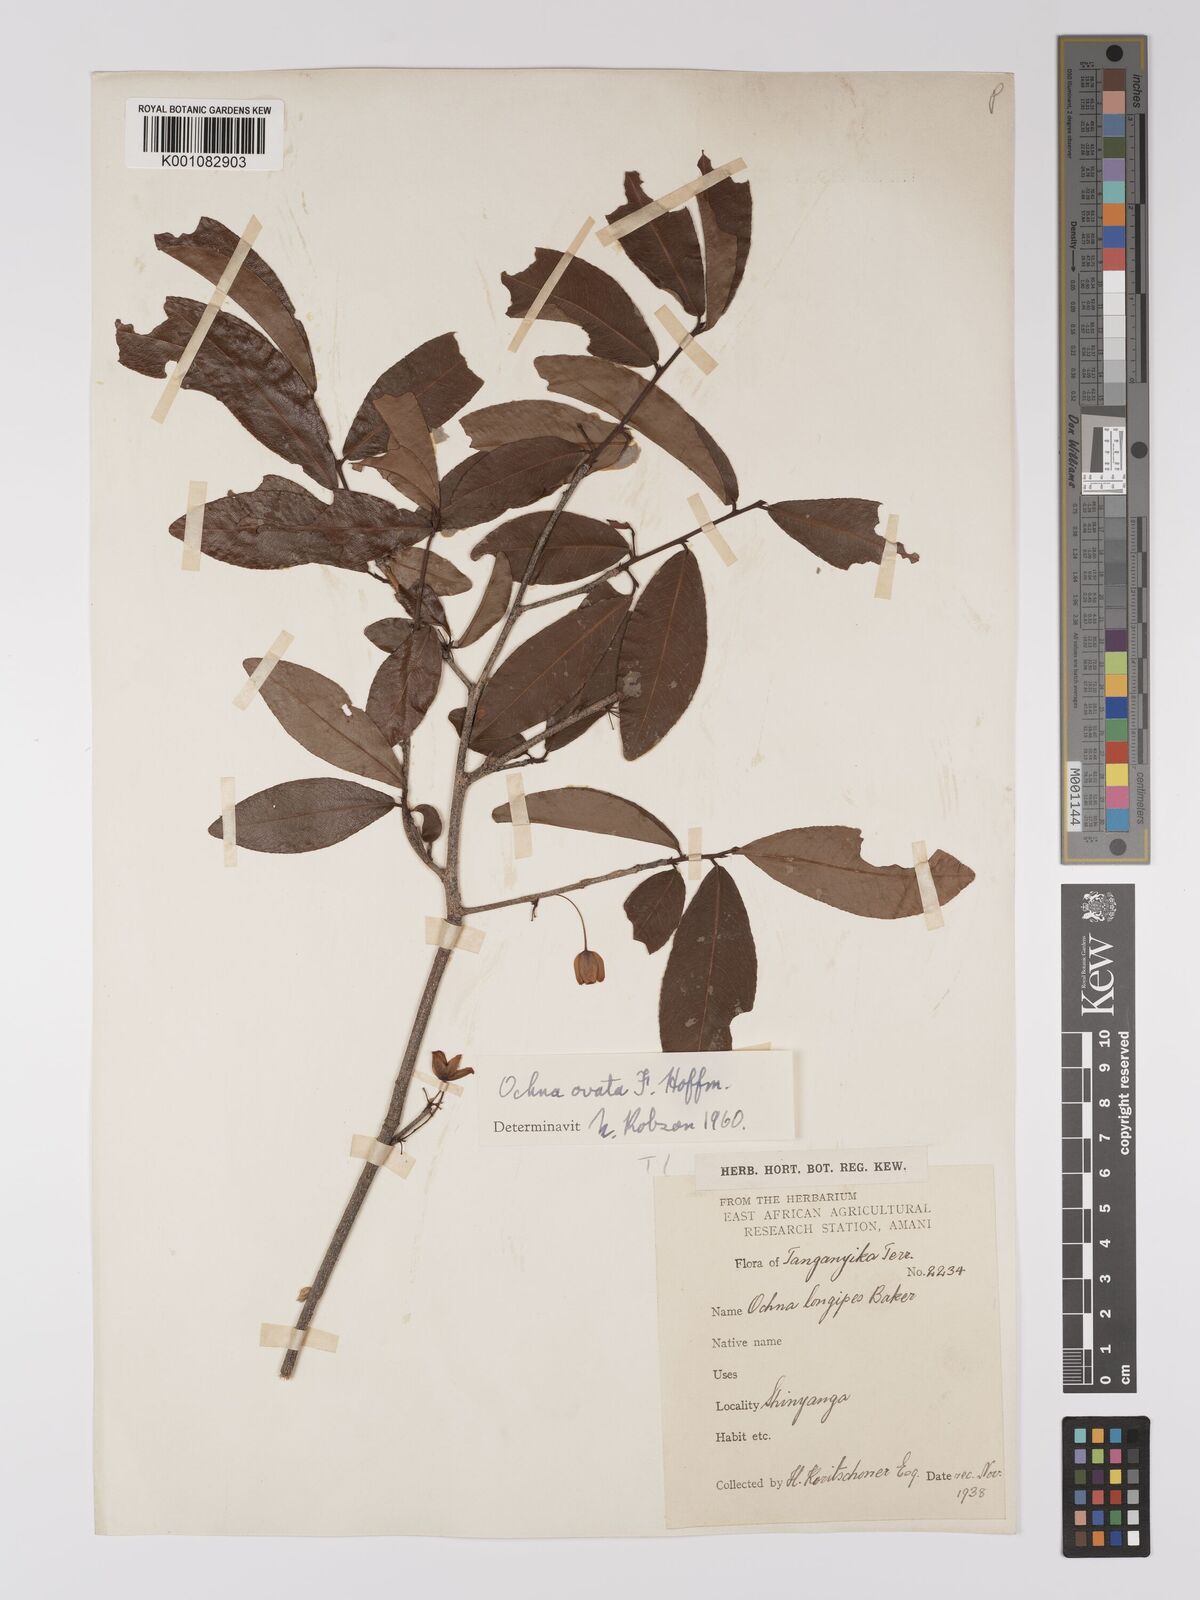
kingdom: Plantae
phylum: Tracheophyta
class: Magnoliopsida
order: Malpighiales
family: Ochnaceae
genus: Ochna
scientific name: Ochna ovata
